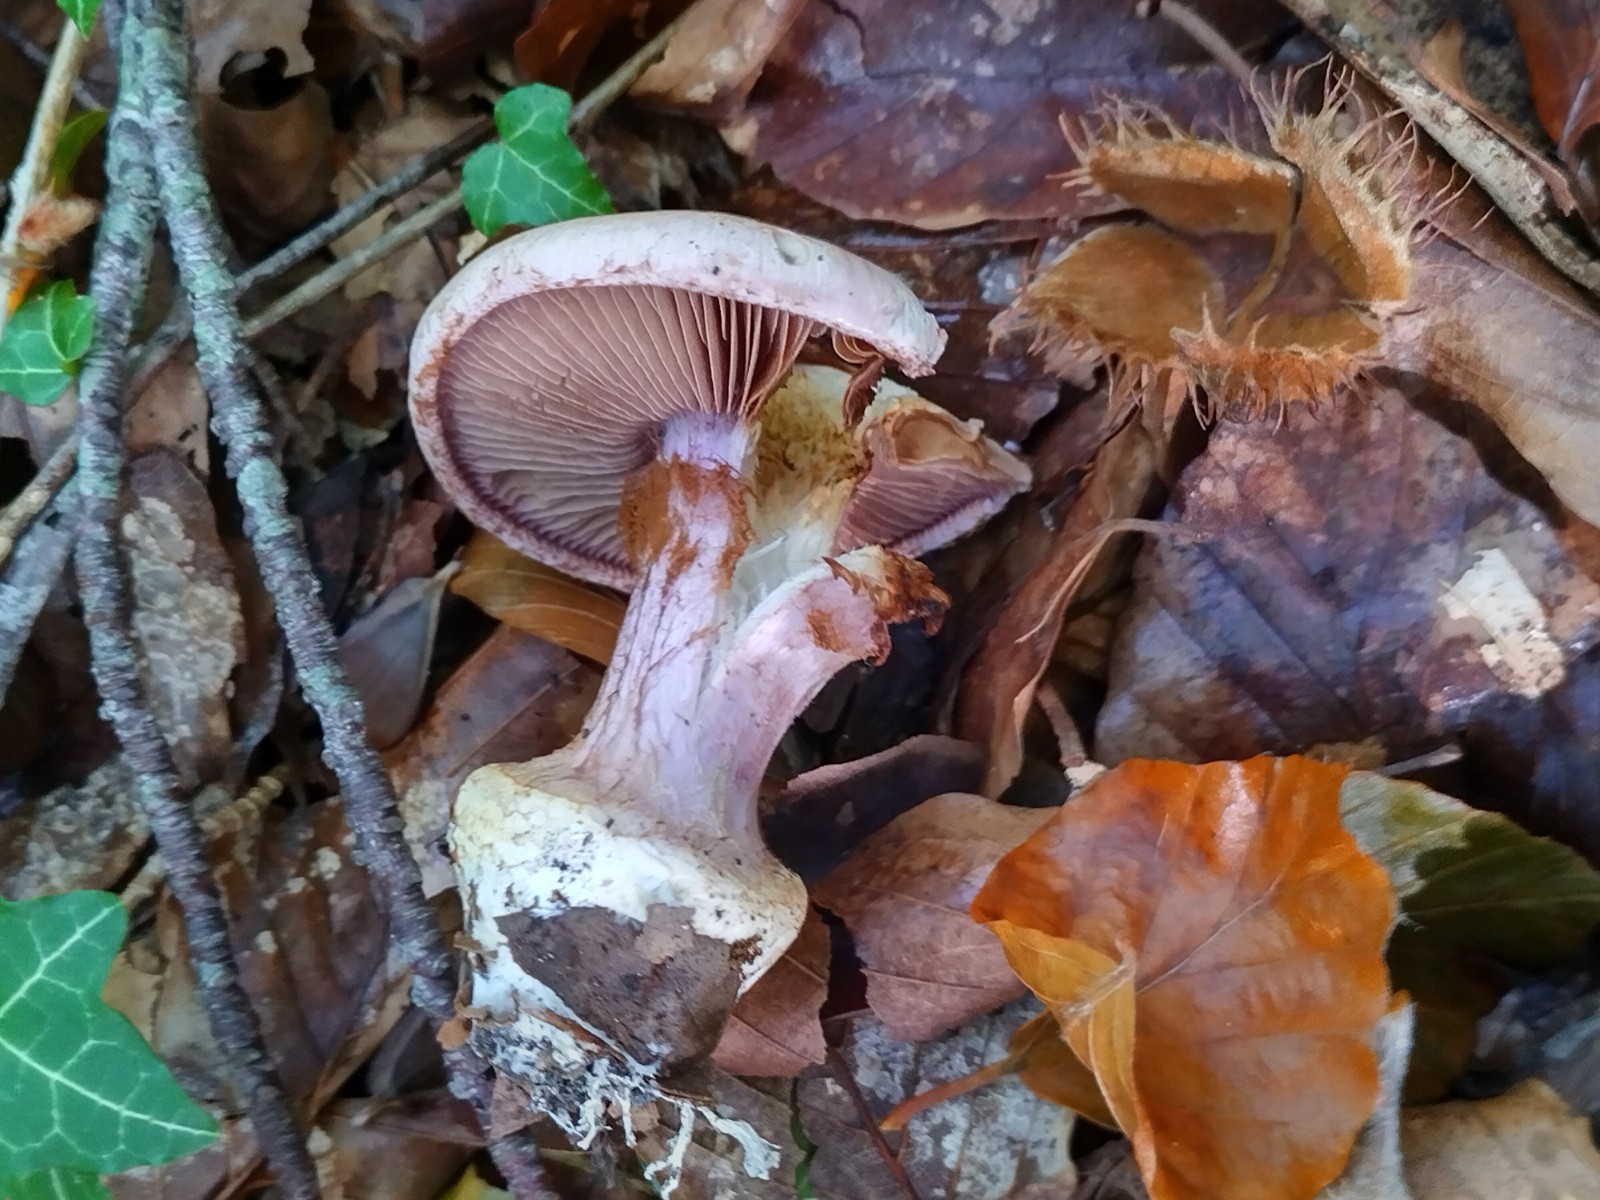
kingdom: Fungi
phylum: Basidiomycota
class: Agaricomycetes
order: Agaricales
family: Cortinariaceae
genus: Calonarius
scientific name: Calonarius suaveolens
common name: sødtduftende slørhat
